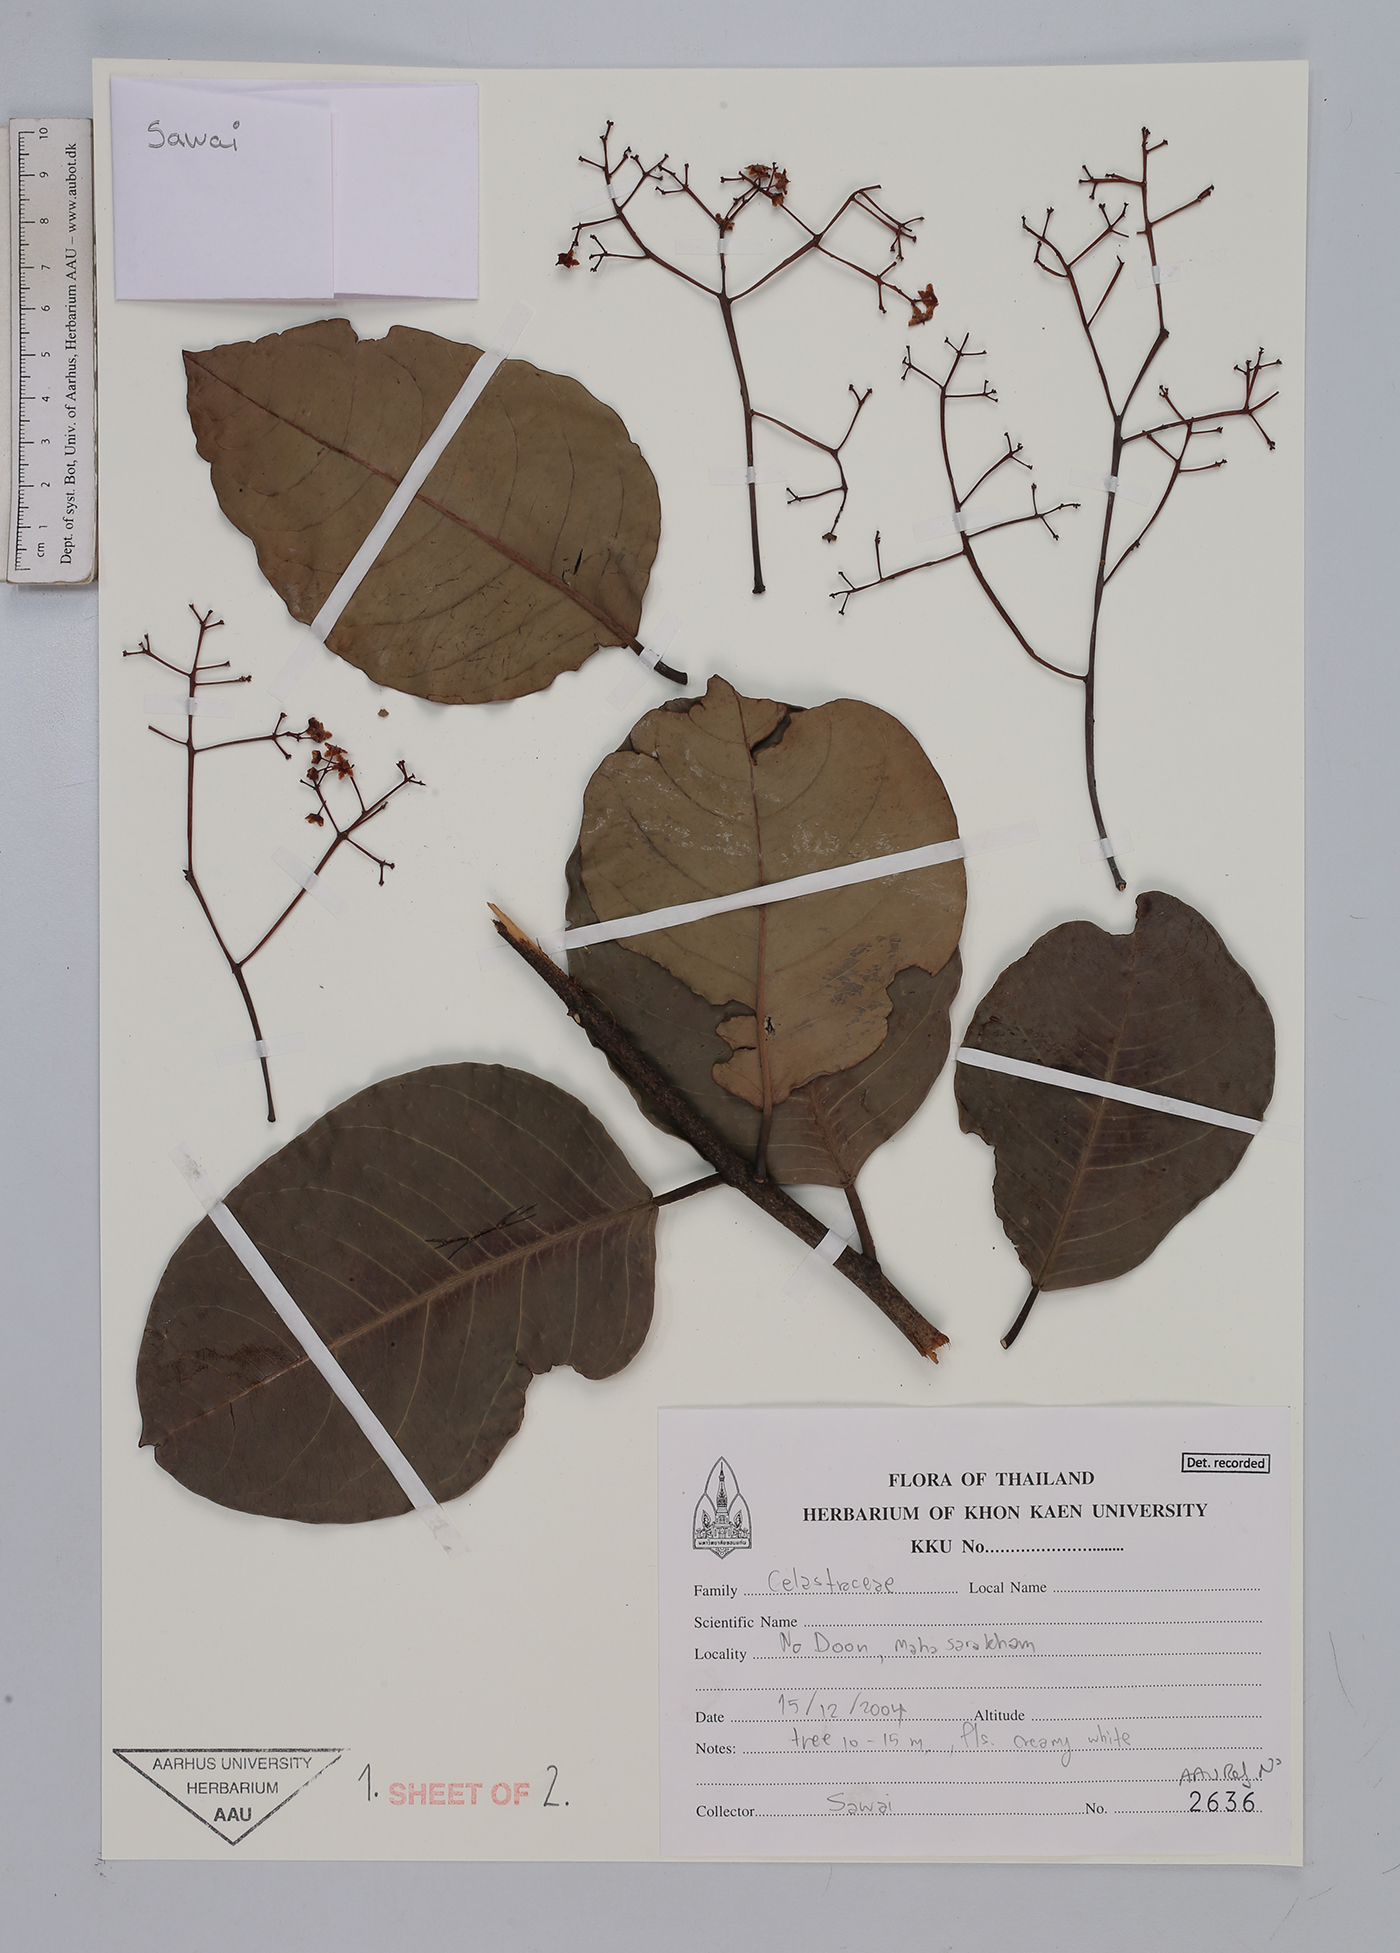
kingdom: Plantae
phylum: Tracheophyta
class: Magnoliopsida
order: Celastrales
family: Celastraceae
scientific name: Celastraceae
